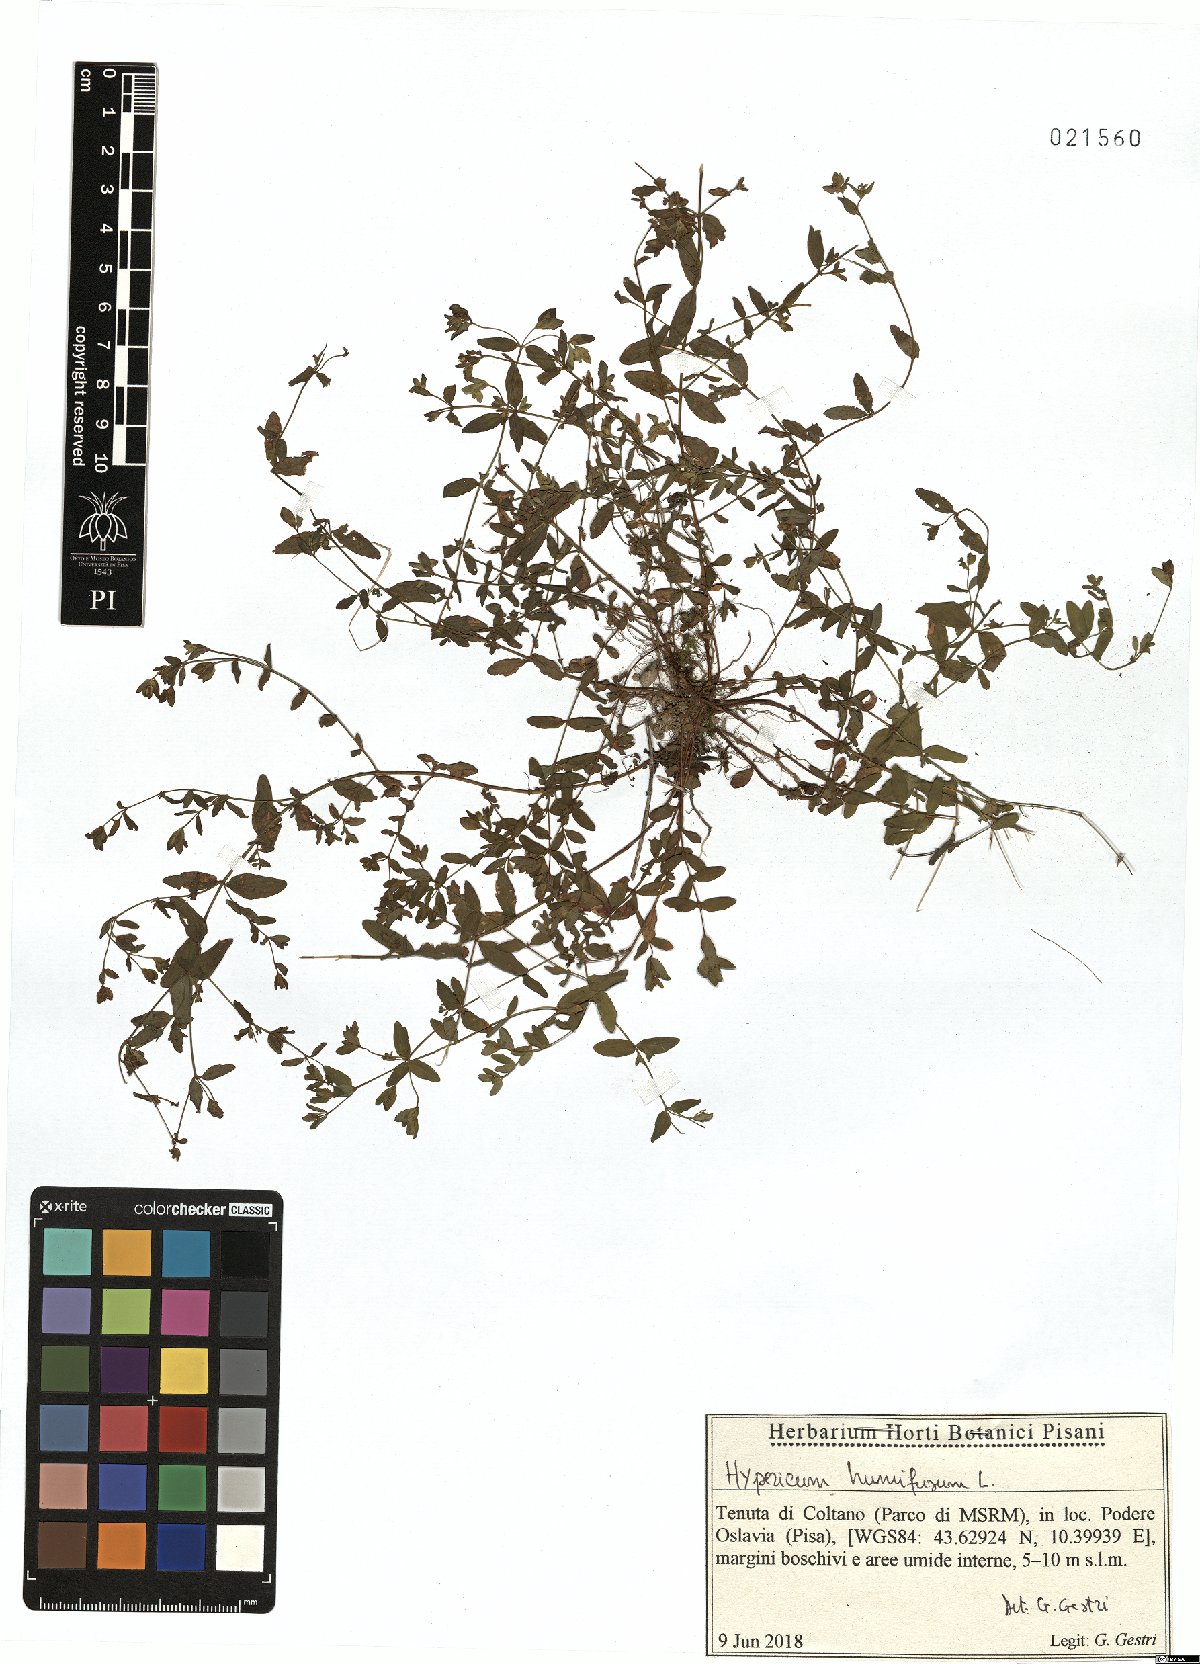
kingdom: Plantae
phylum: Tracheophyta
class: Magnoliopsida
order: Malpighiales
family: Hypericaceae
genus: Hypericum
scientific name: Hypericum humifusum
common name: Trailing st. john's-wort
